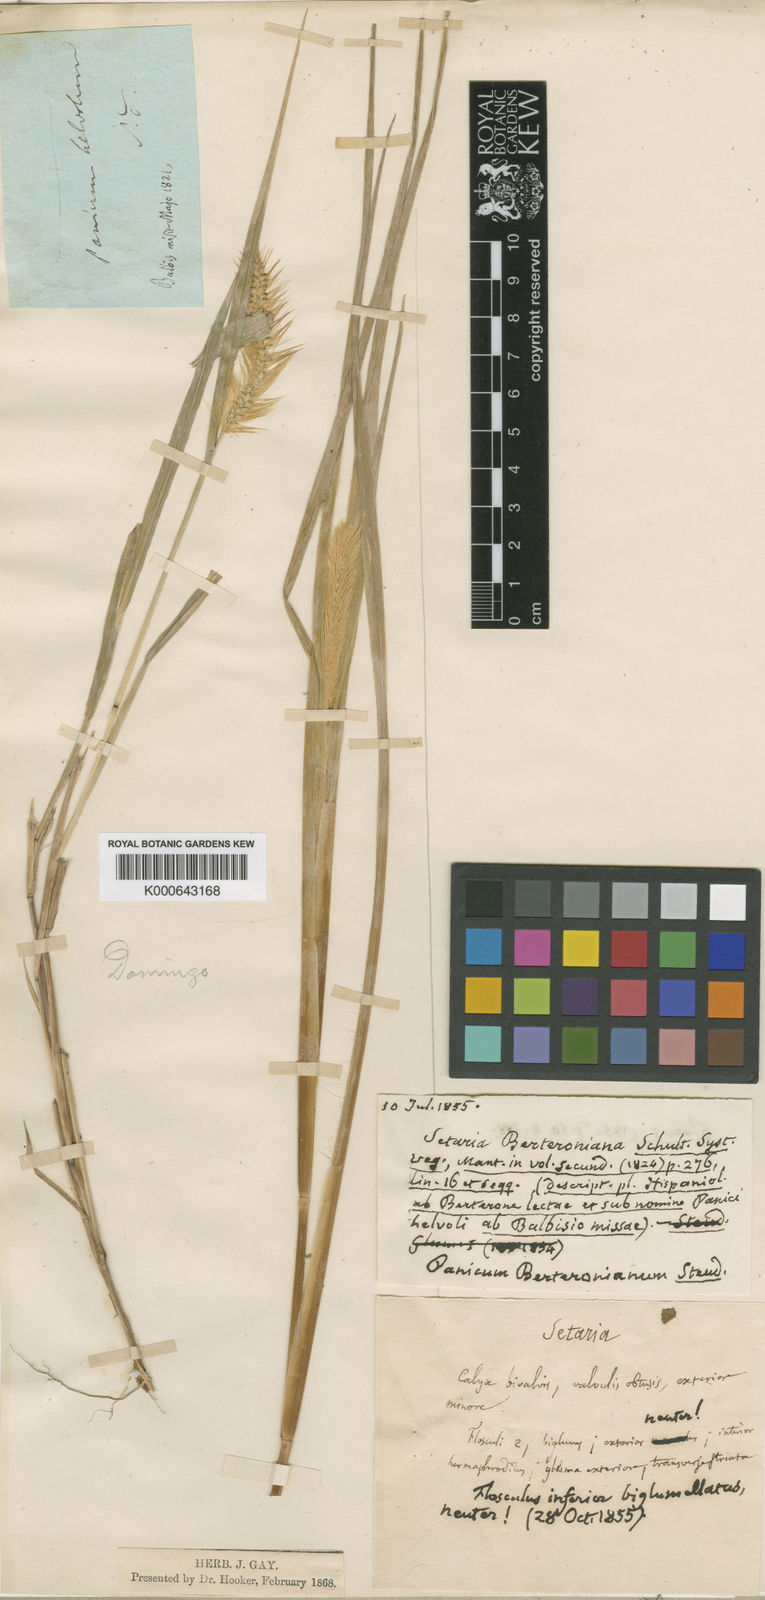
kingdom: Plantae
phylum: Tracheophyta
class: Liliopsida
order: Poales
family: Poaceae
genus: Setaria
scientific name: Setaria
